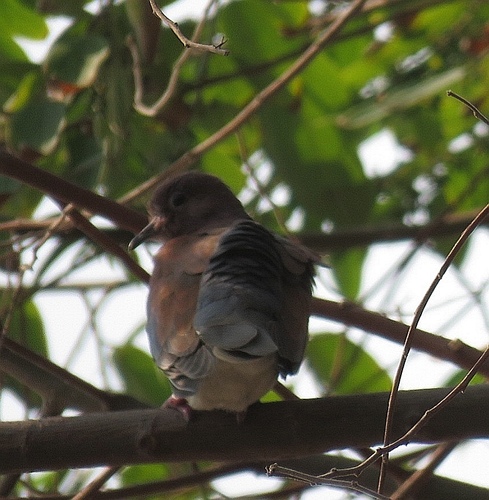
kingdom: Animalia
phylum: Chordata
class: Aves
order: Columbiformes
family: Columbidae
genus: Spilopelia
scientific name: Spilopelia senegalensis
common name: Laughing dove
